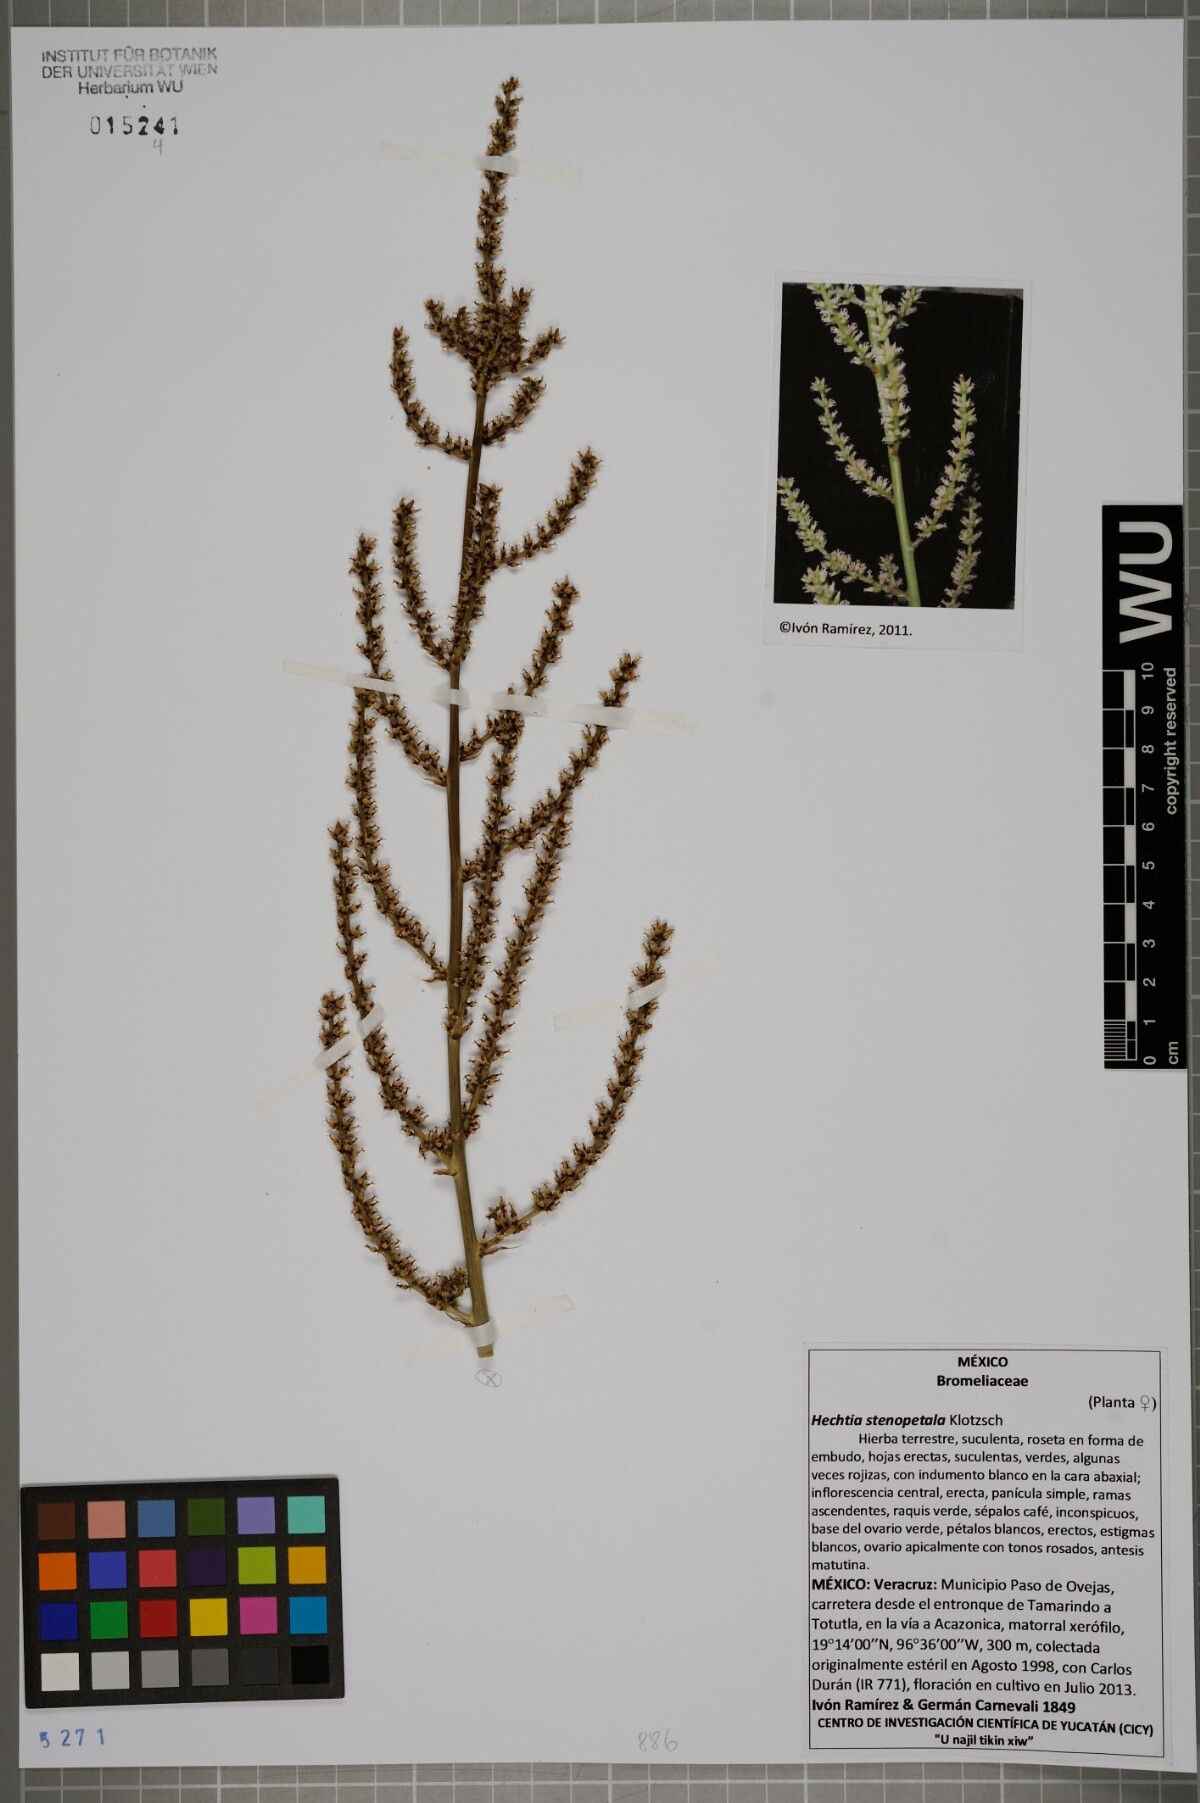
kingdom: Plantae
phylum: Tracheophyta
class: Liliopsida
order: Poales
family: Bromeliaceae
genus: Hechtia
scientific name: Hechtia stenopetala
